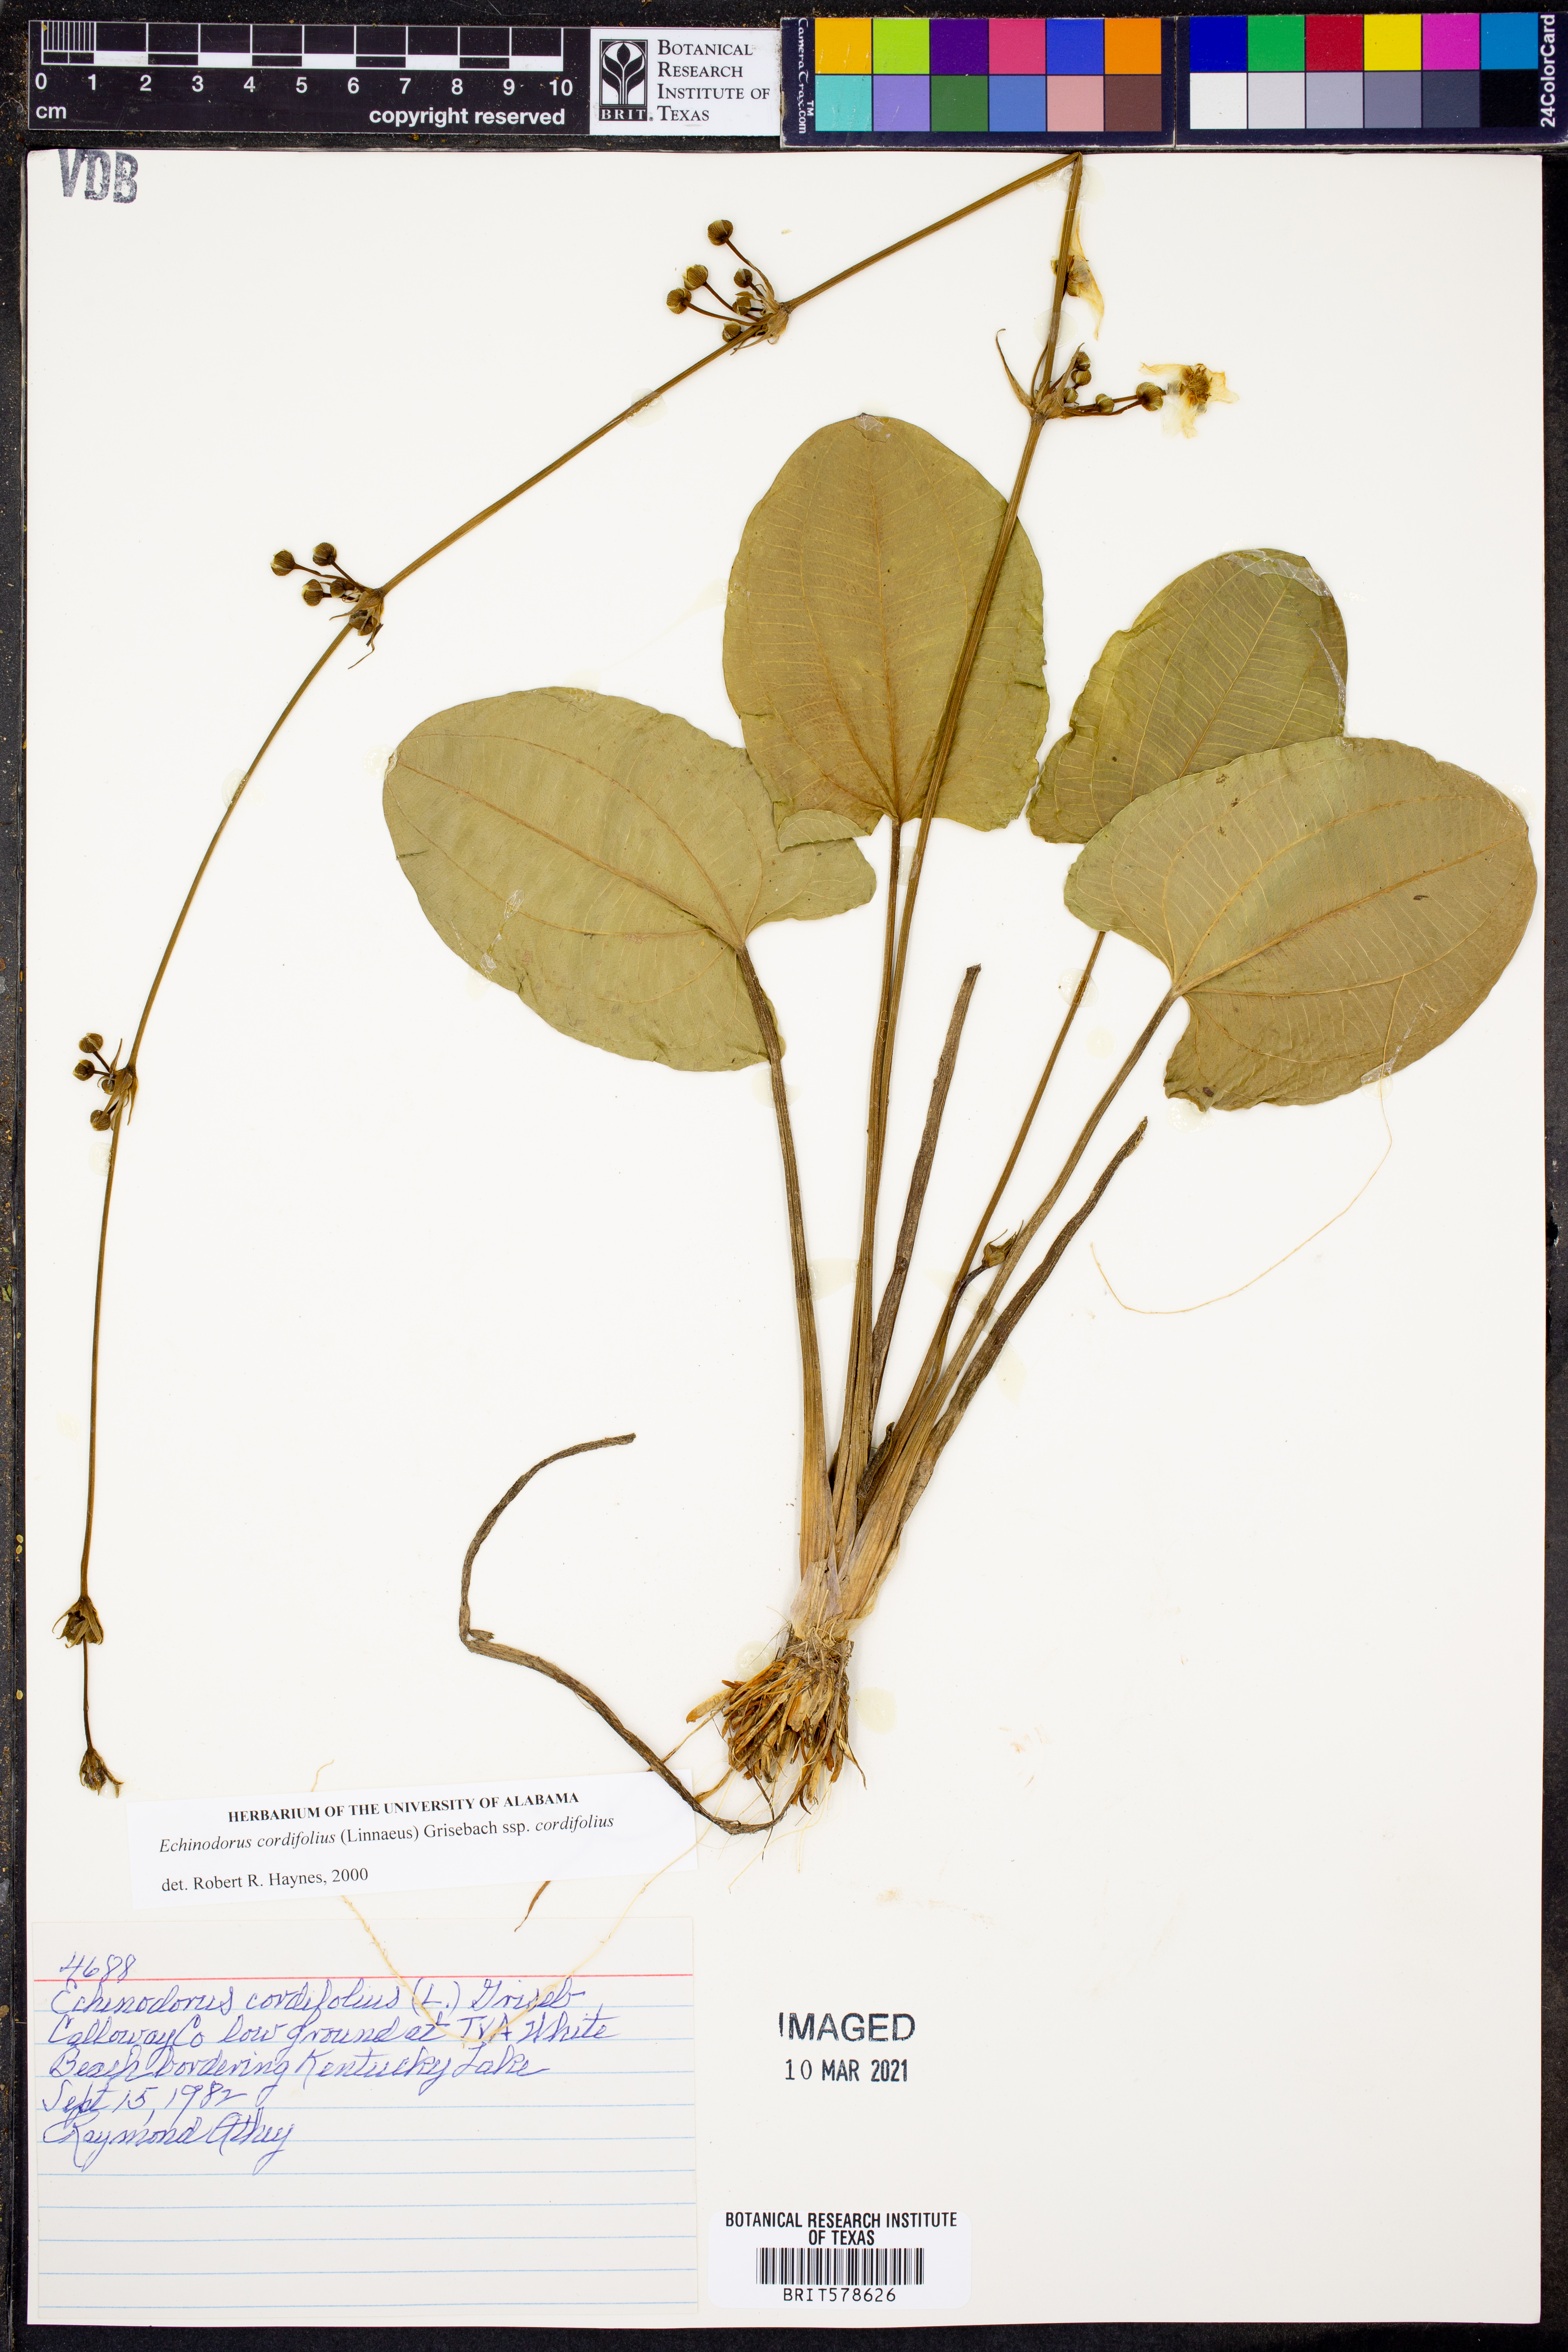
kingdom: Plantae
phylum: Tracheophyta
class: Liliopsida
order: Alismatales
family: Alismataceae
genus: Aquarius
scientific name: Aquarius cordifolius
